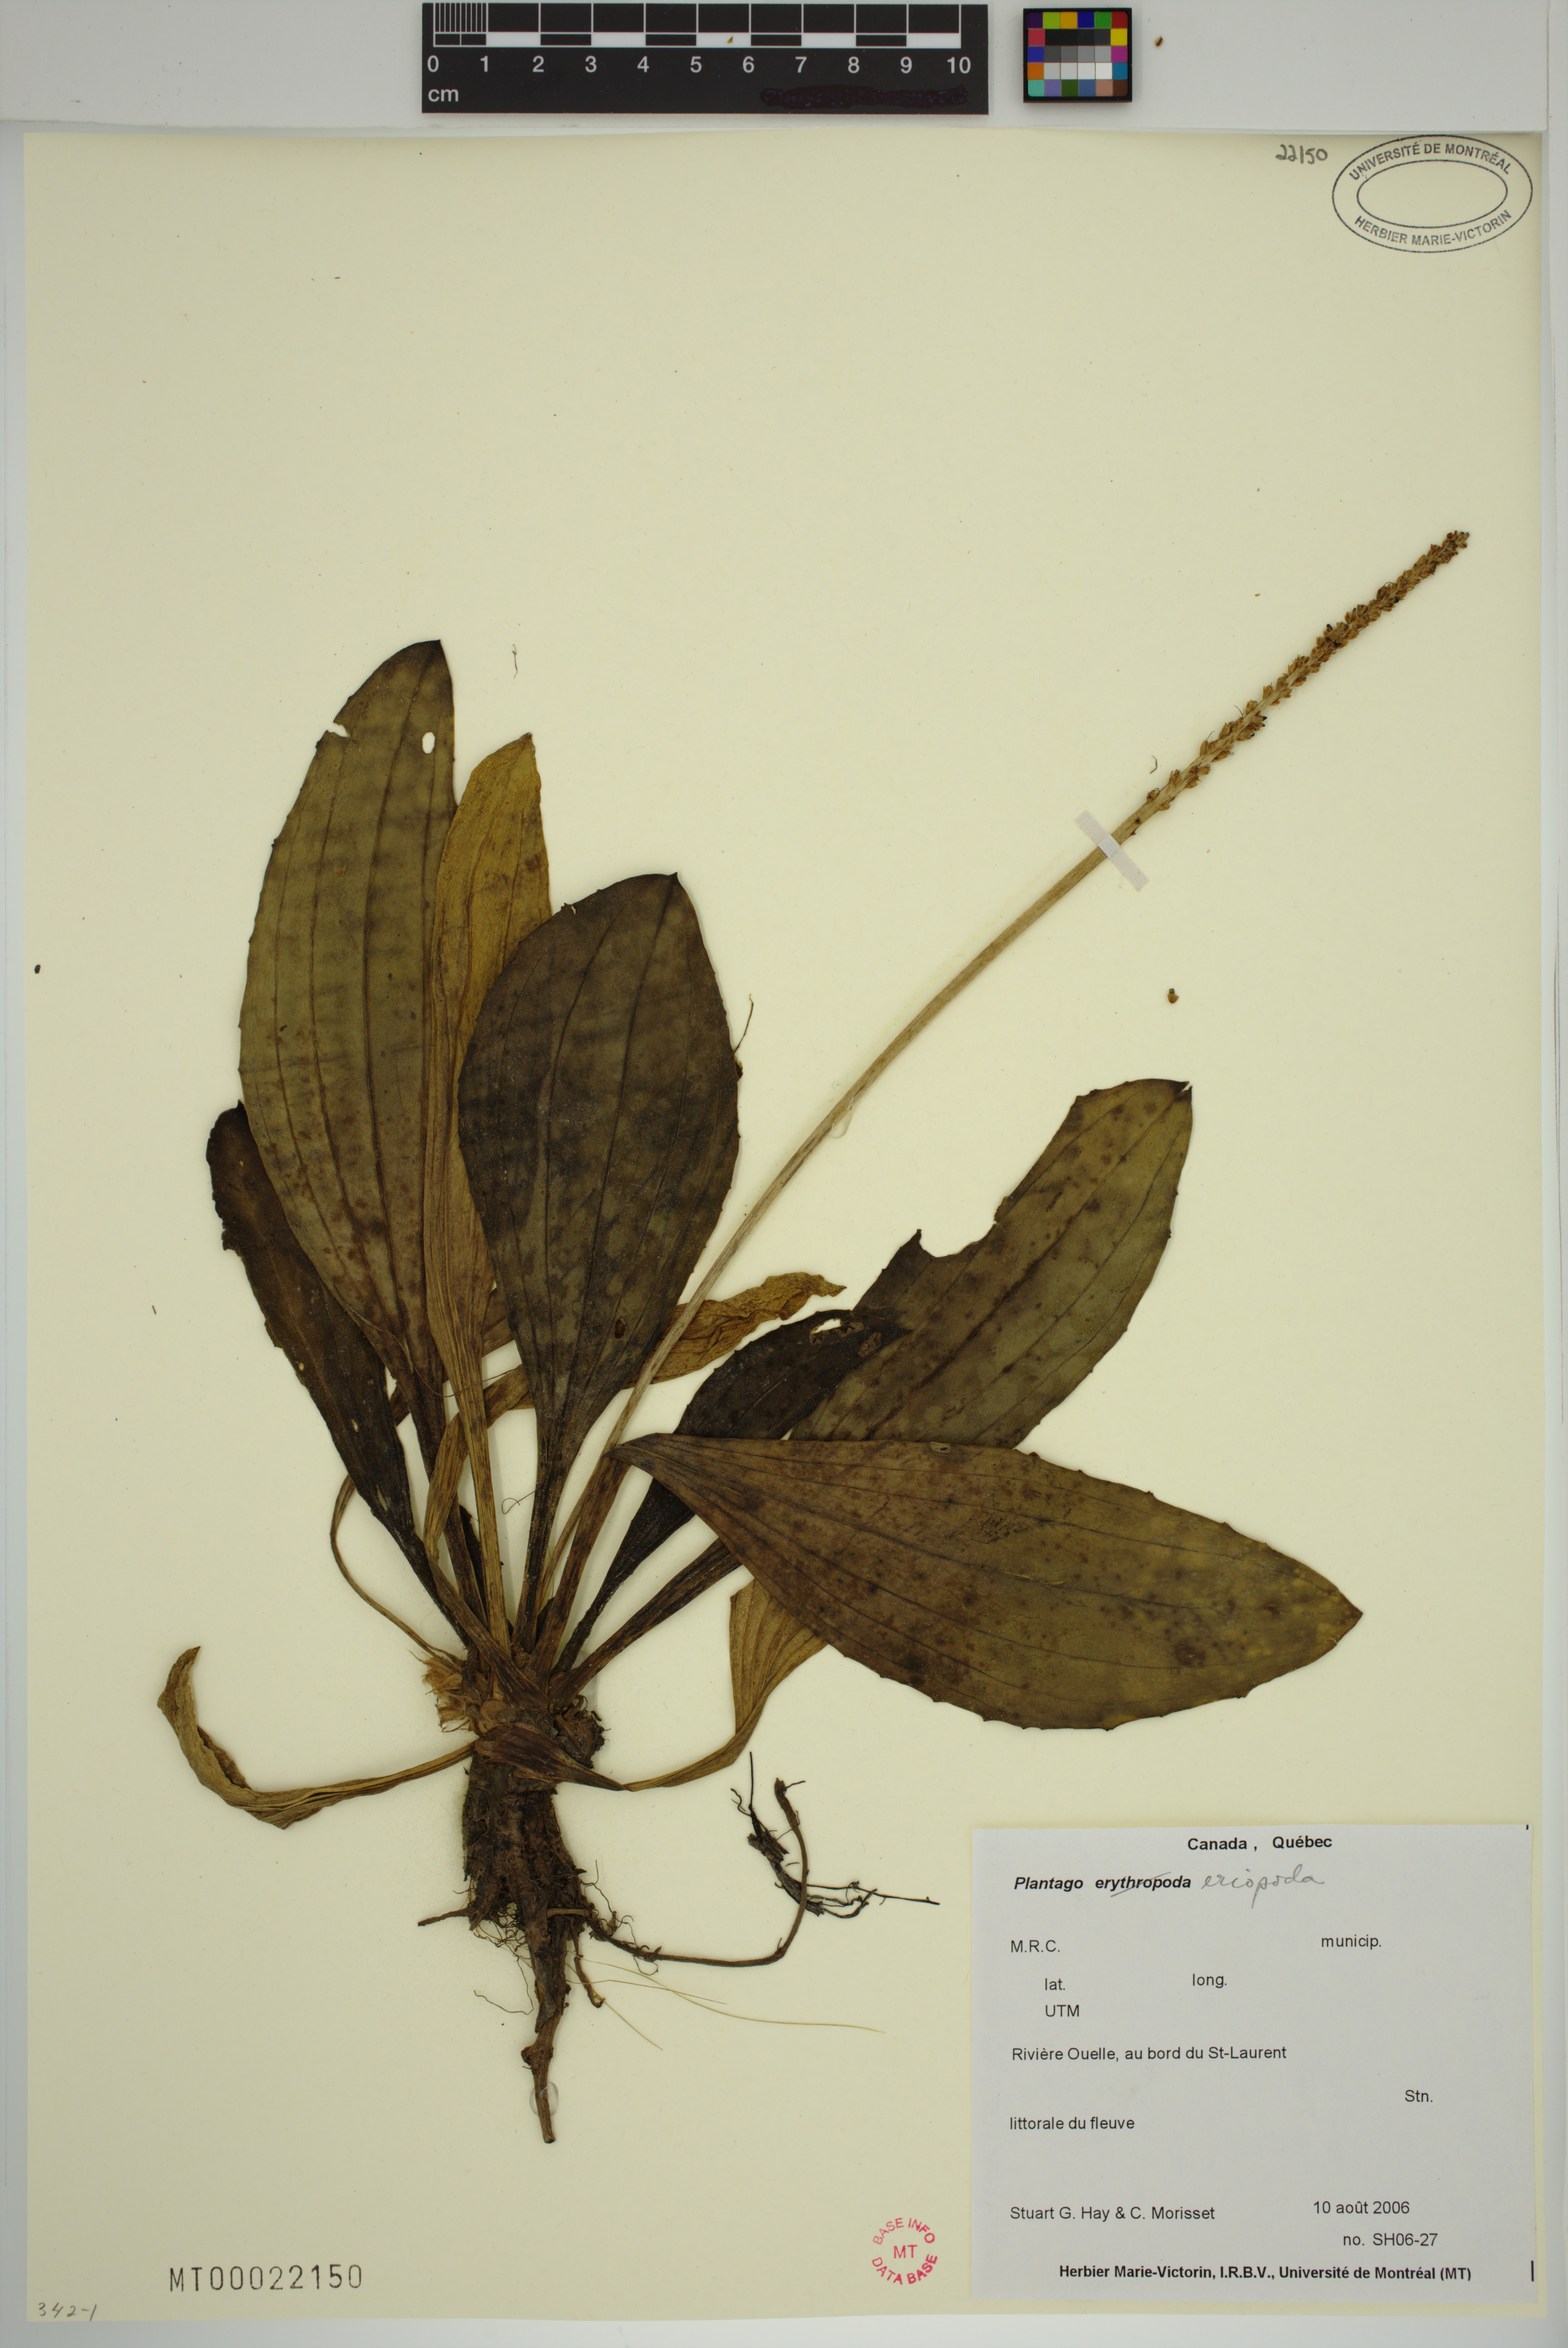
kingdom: Plantae
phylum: Tracheophyta
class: Magnoliopsida
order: Lamiales
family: Plantaginaceae
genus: Plantago
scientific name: Plantago eriopoda
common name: Alkali plantain
